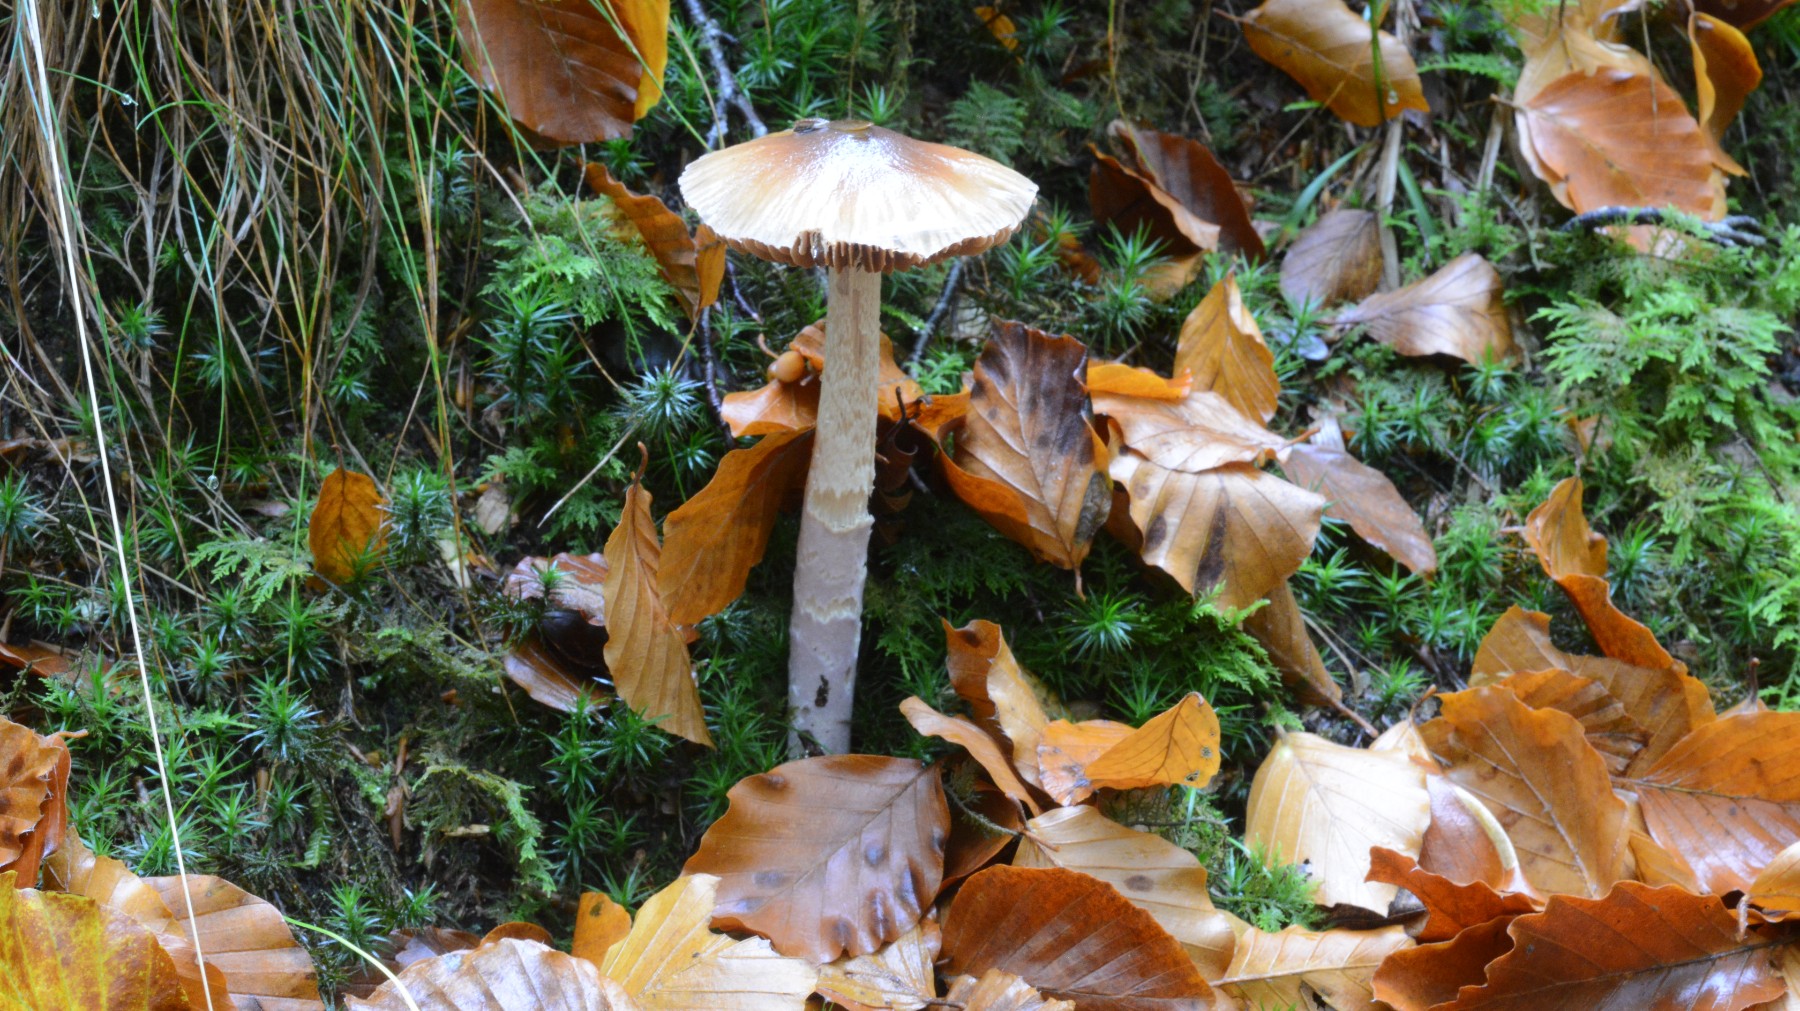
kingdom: Fungi
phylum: Basidiomycota
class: Agaricomycetes
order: Agaricales
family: Cortinariaceae
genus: Cortinarius
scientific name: Cortinarius elatior
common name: høj slørhat
